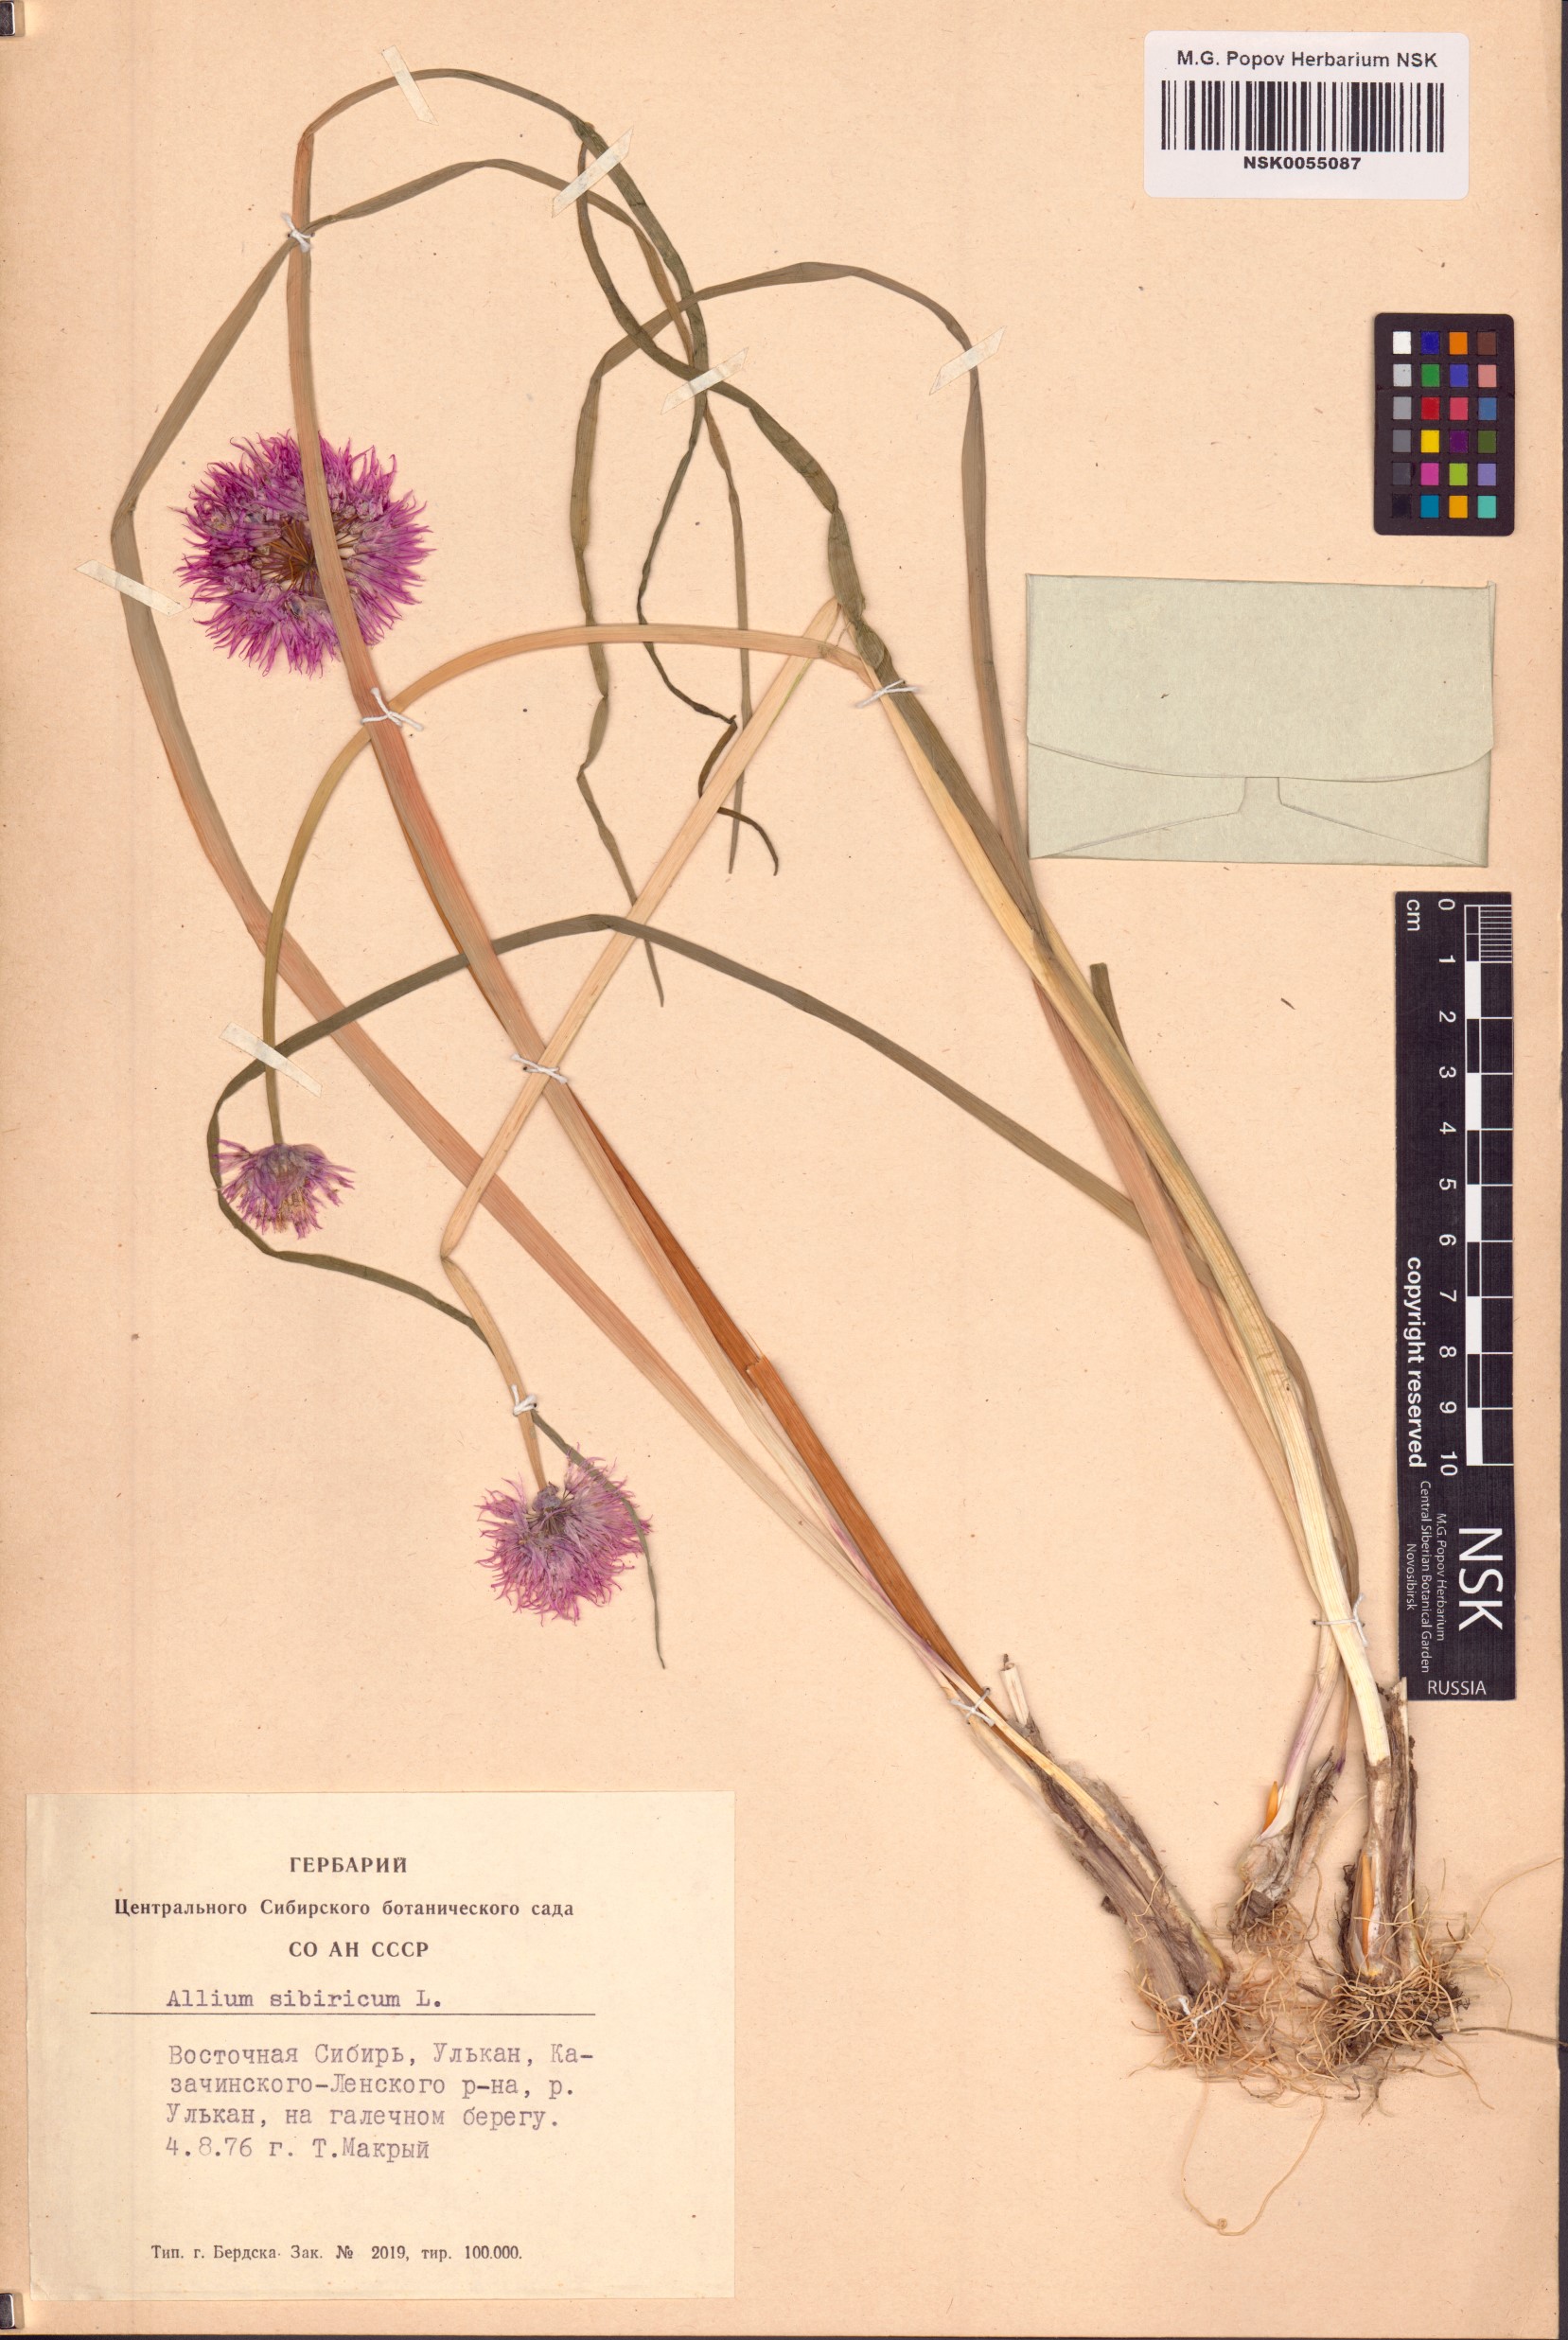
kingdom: Plantae
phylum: Tracheophyta
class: Liliopsida
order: Asparagales
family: Amaryllidaceae
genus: Allium
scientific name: Allium schoenoprasum
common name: Chives
